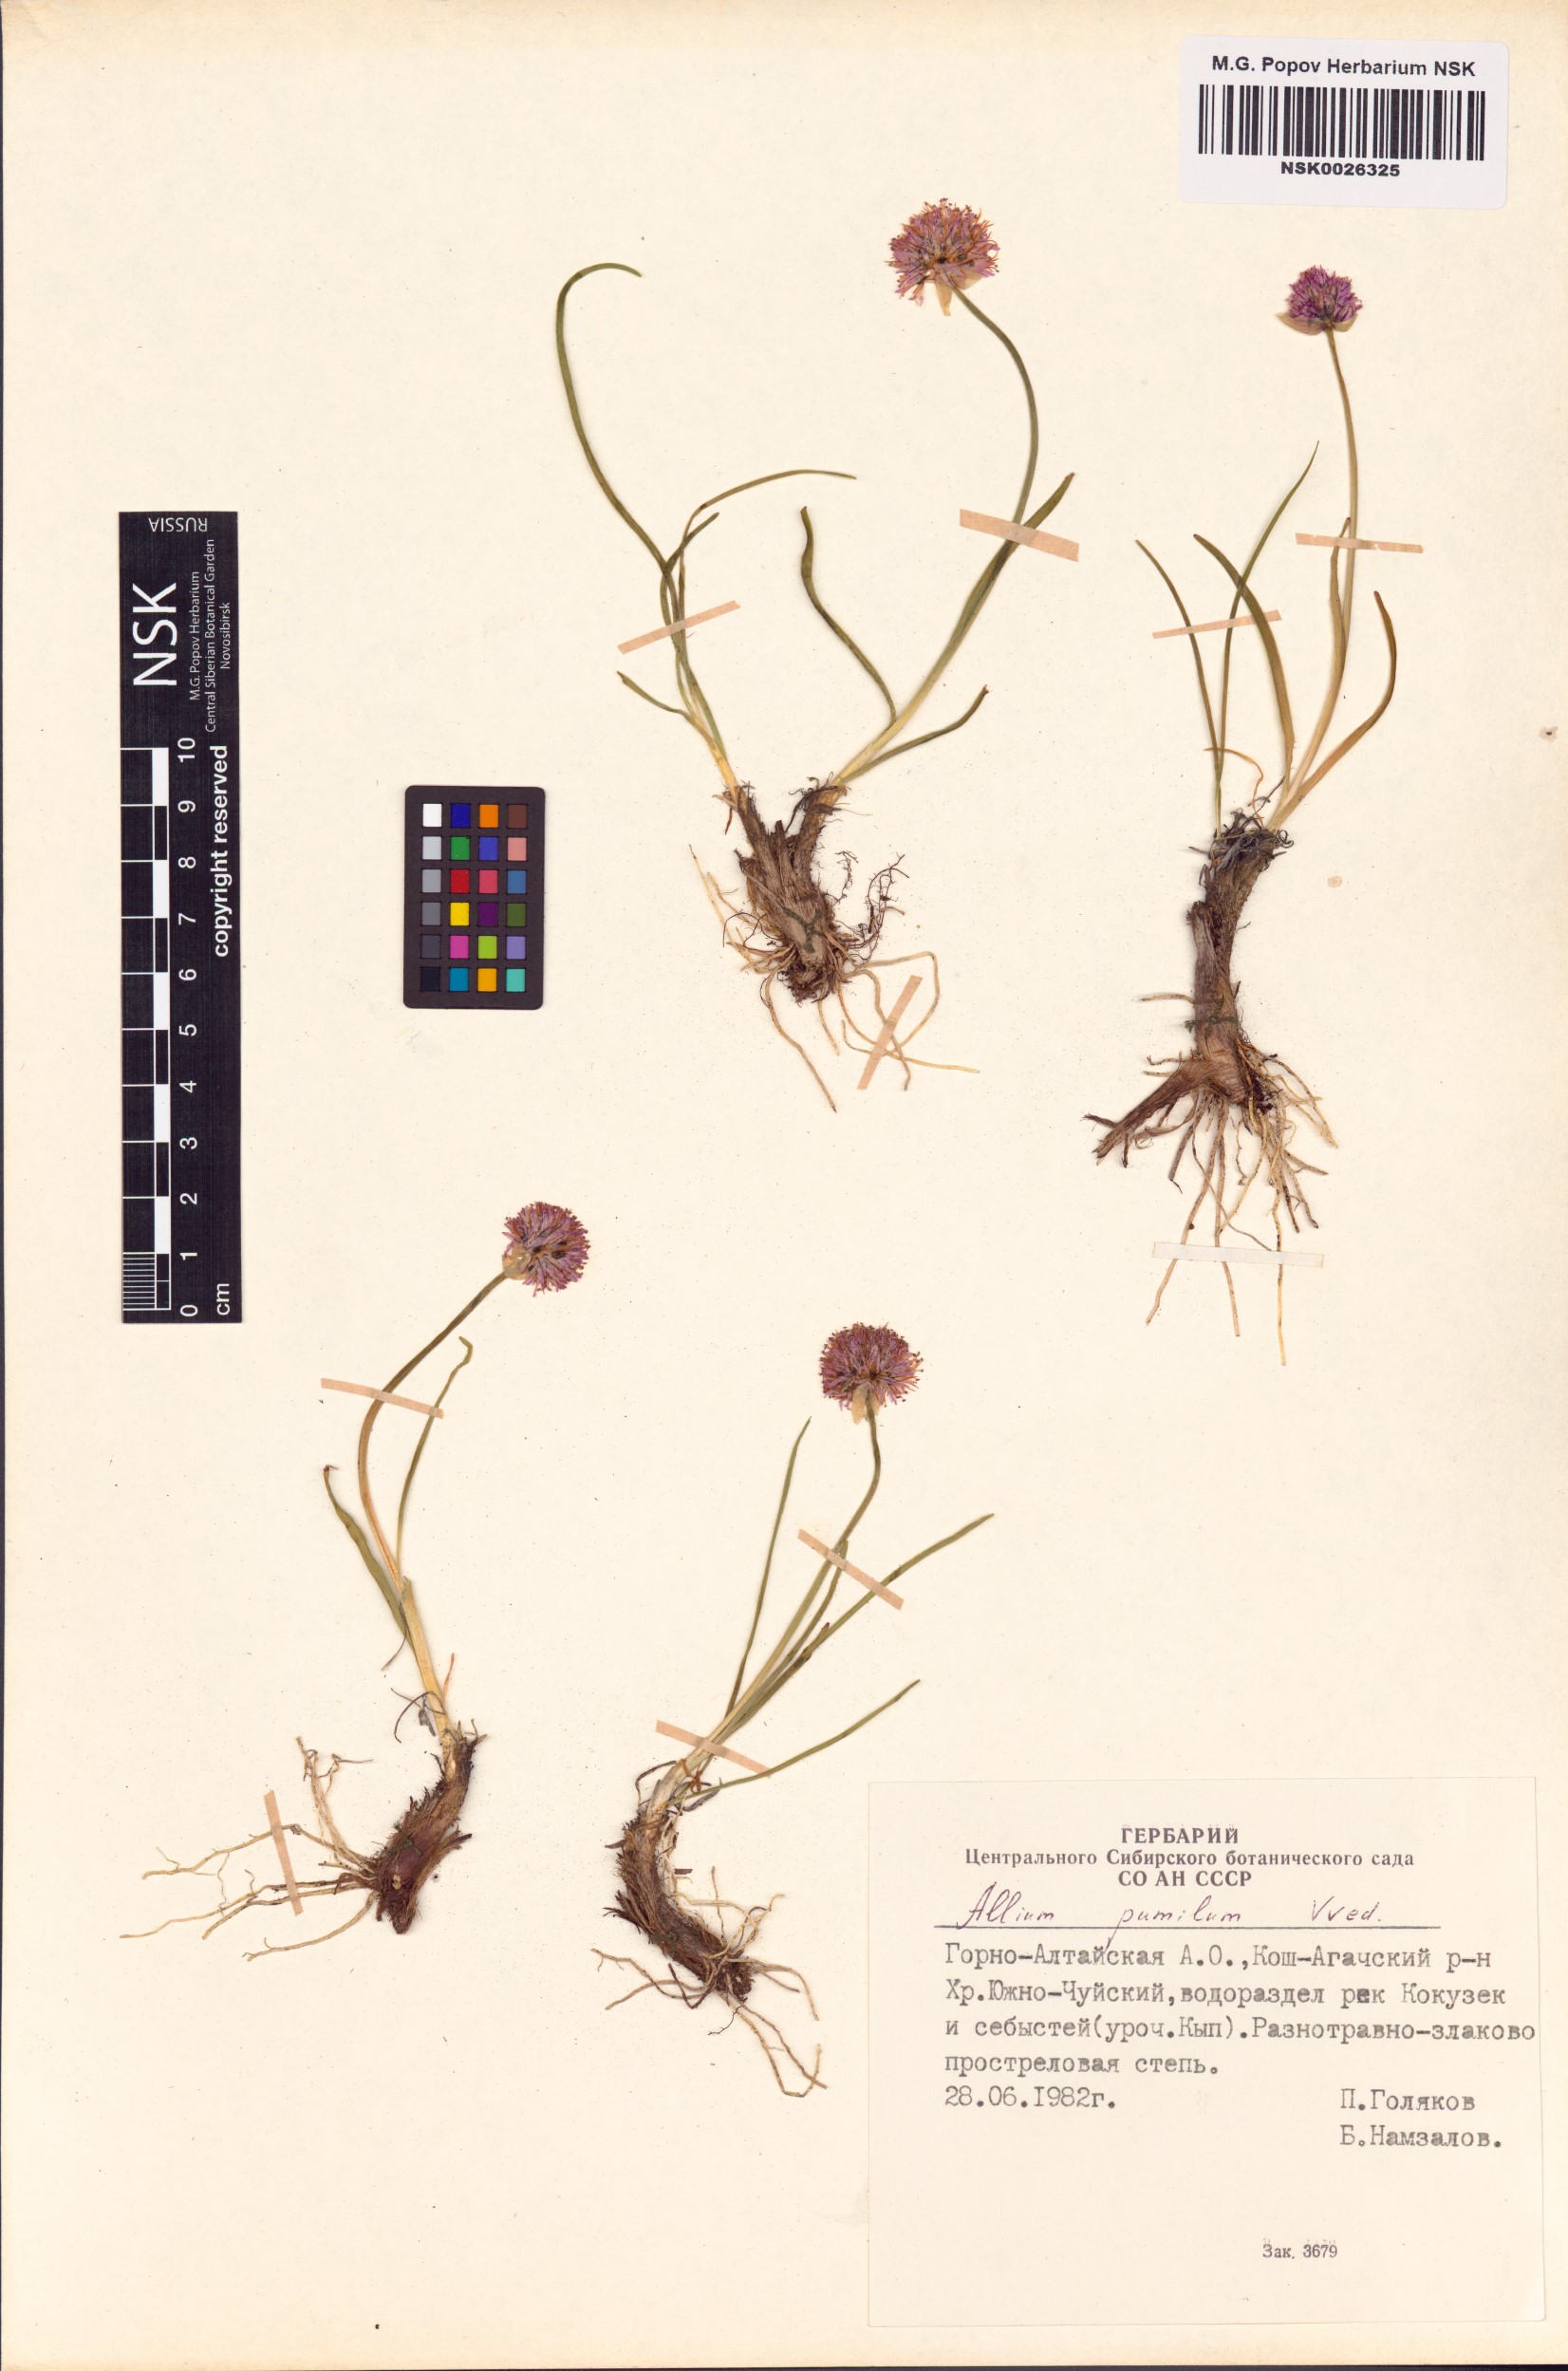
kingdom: Plantae
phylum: Tracheophyta
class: Liliopsida
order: Asparagales
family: Amaryllidaceae
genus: Allium
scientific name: Allium pumilum
